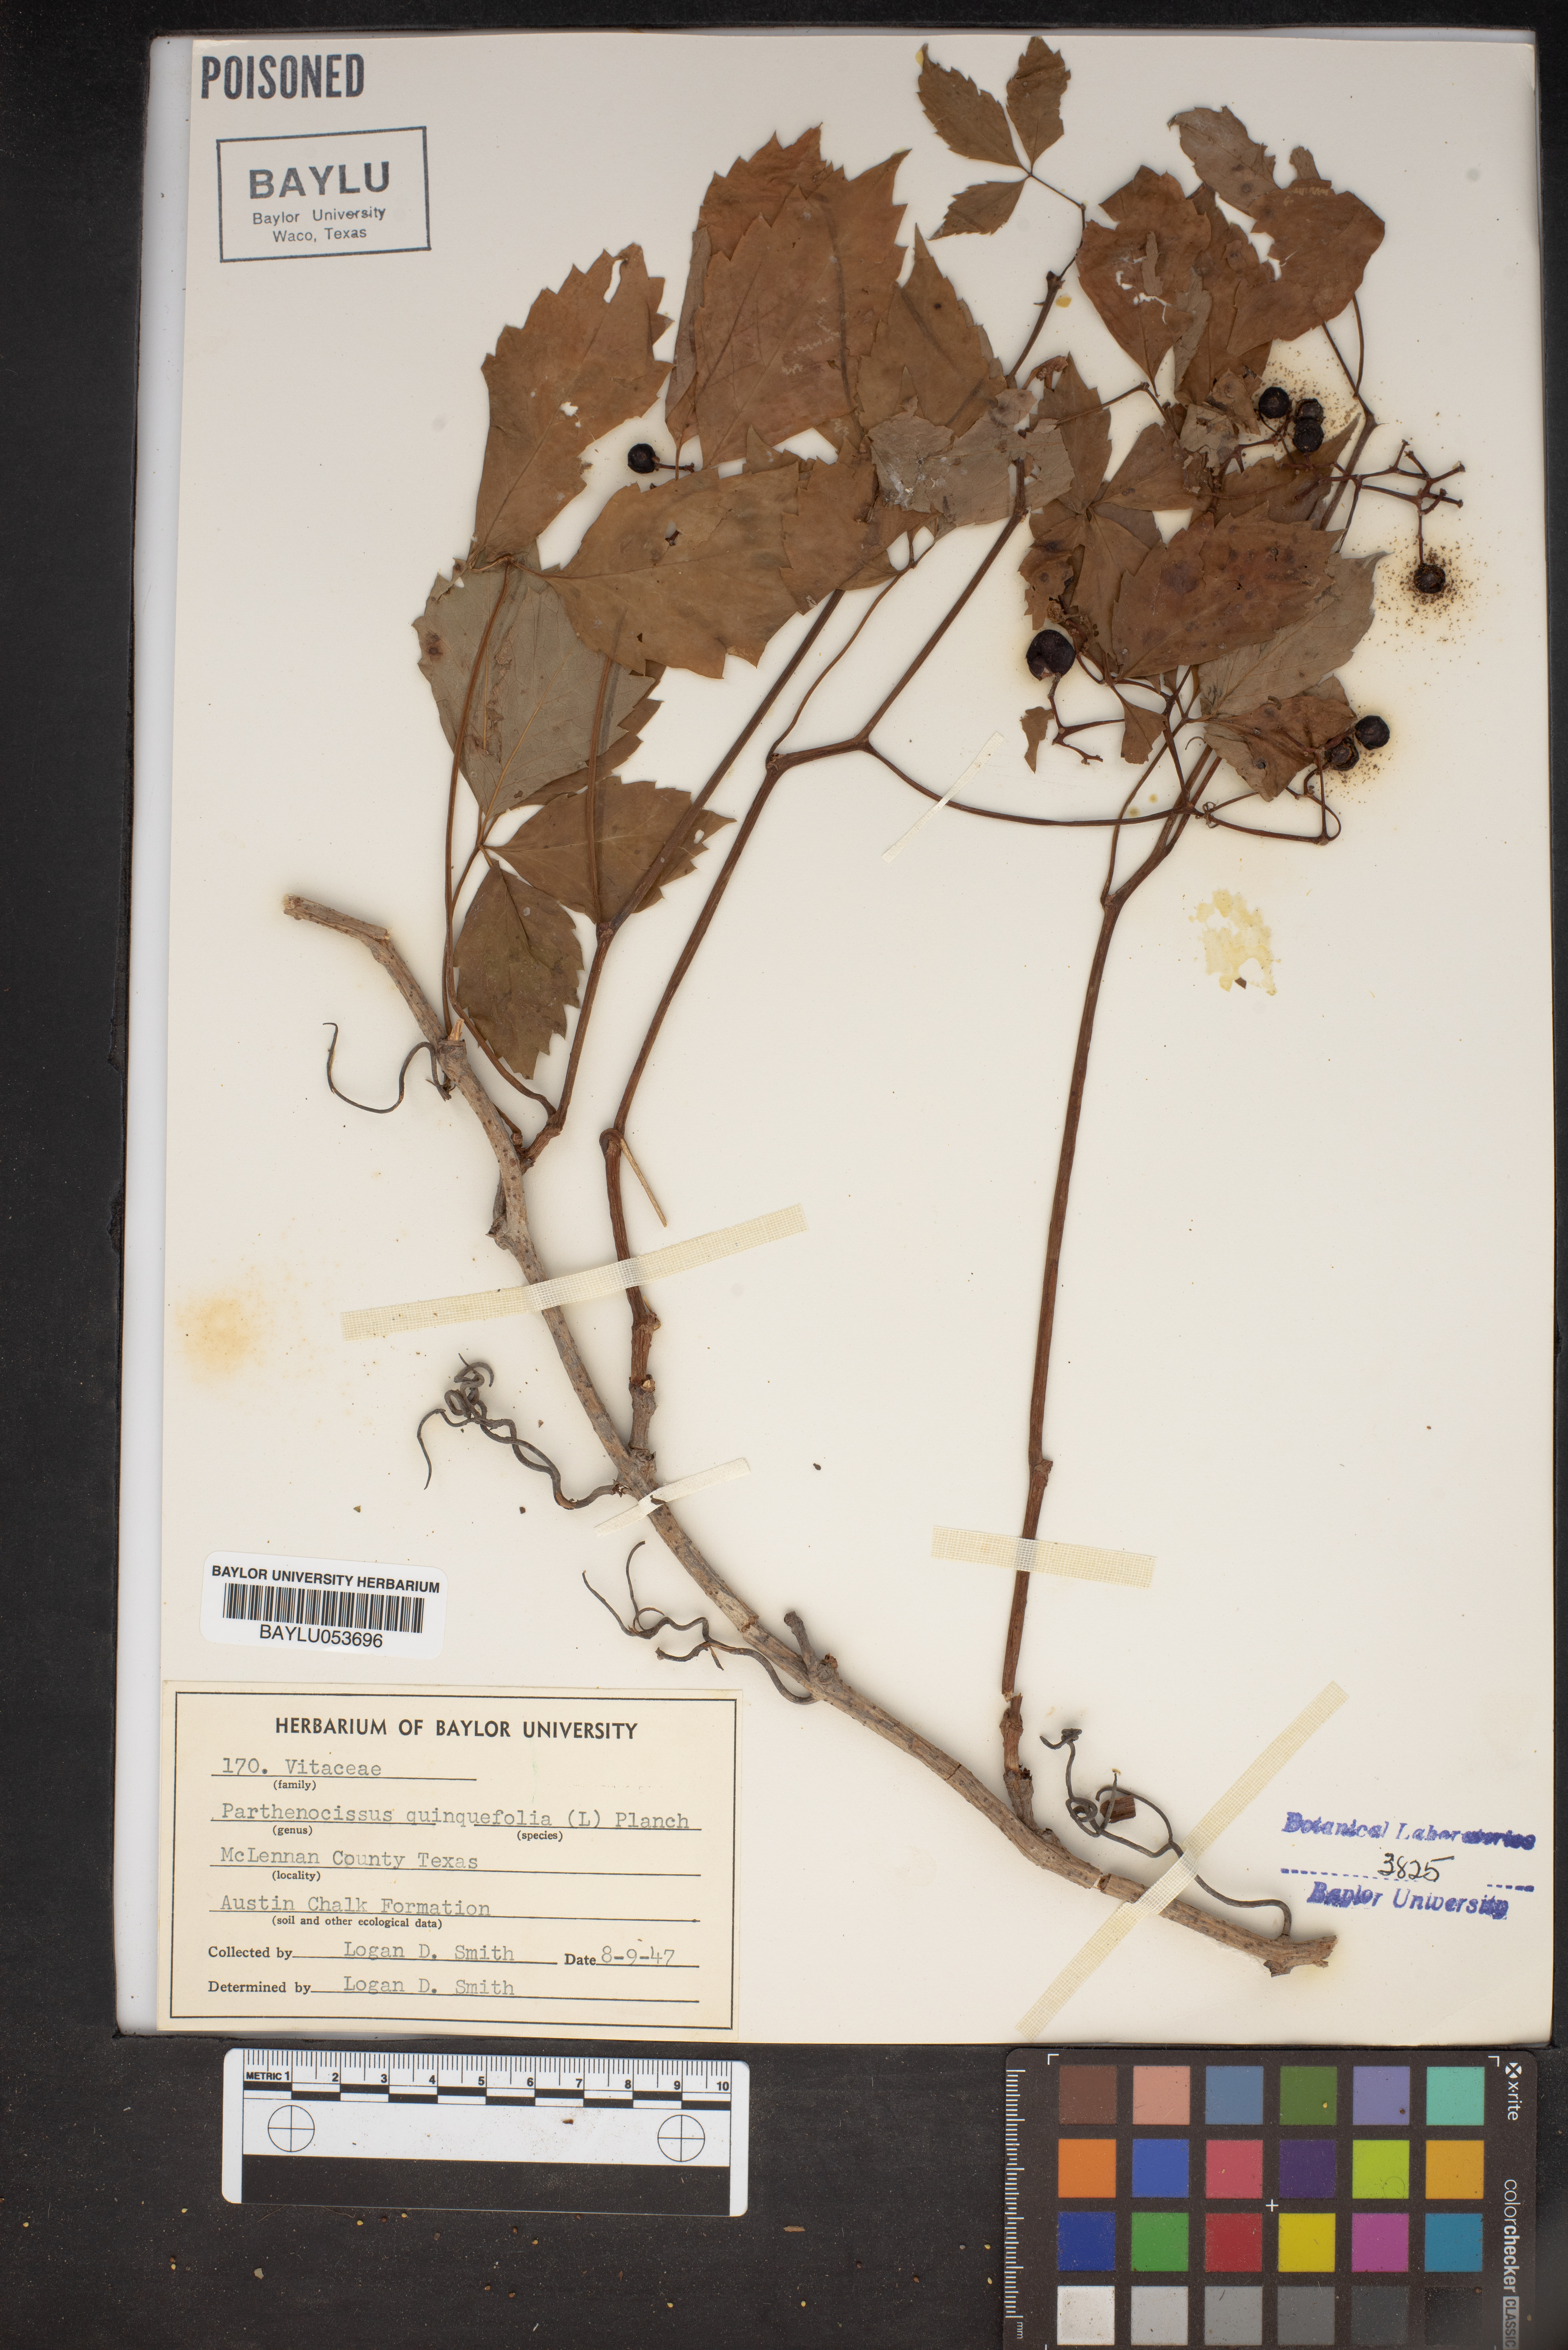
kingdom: Plantae
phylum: Tracheophyta
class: Magnoliopsida
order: Vitales
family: Vitaceae
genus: Parthenocissus
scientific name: Parthenocissus quinquefolia
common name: Virginia-creeper
